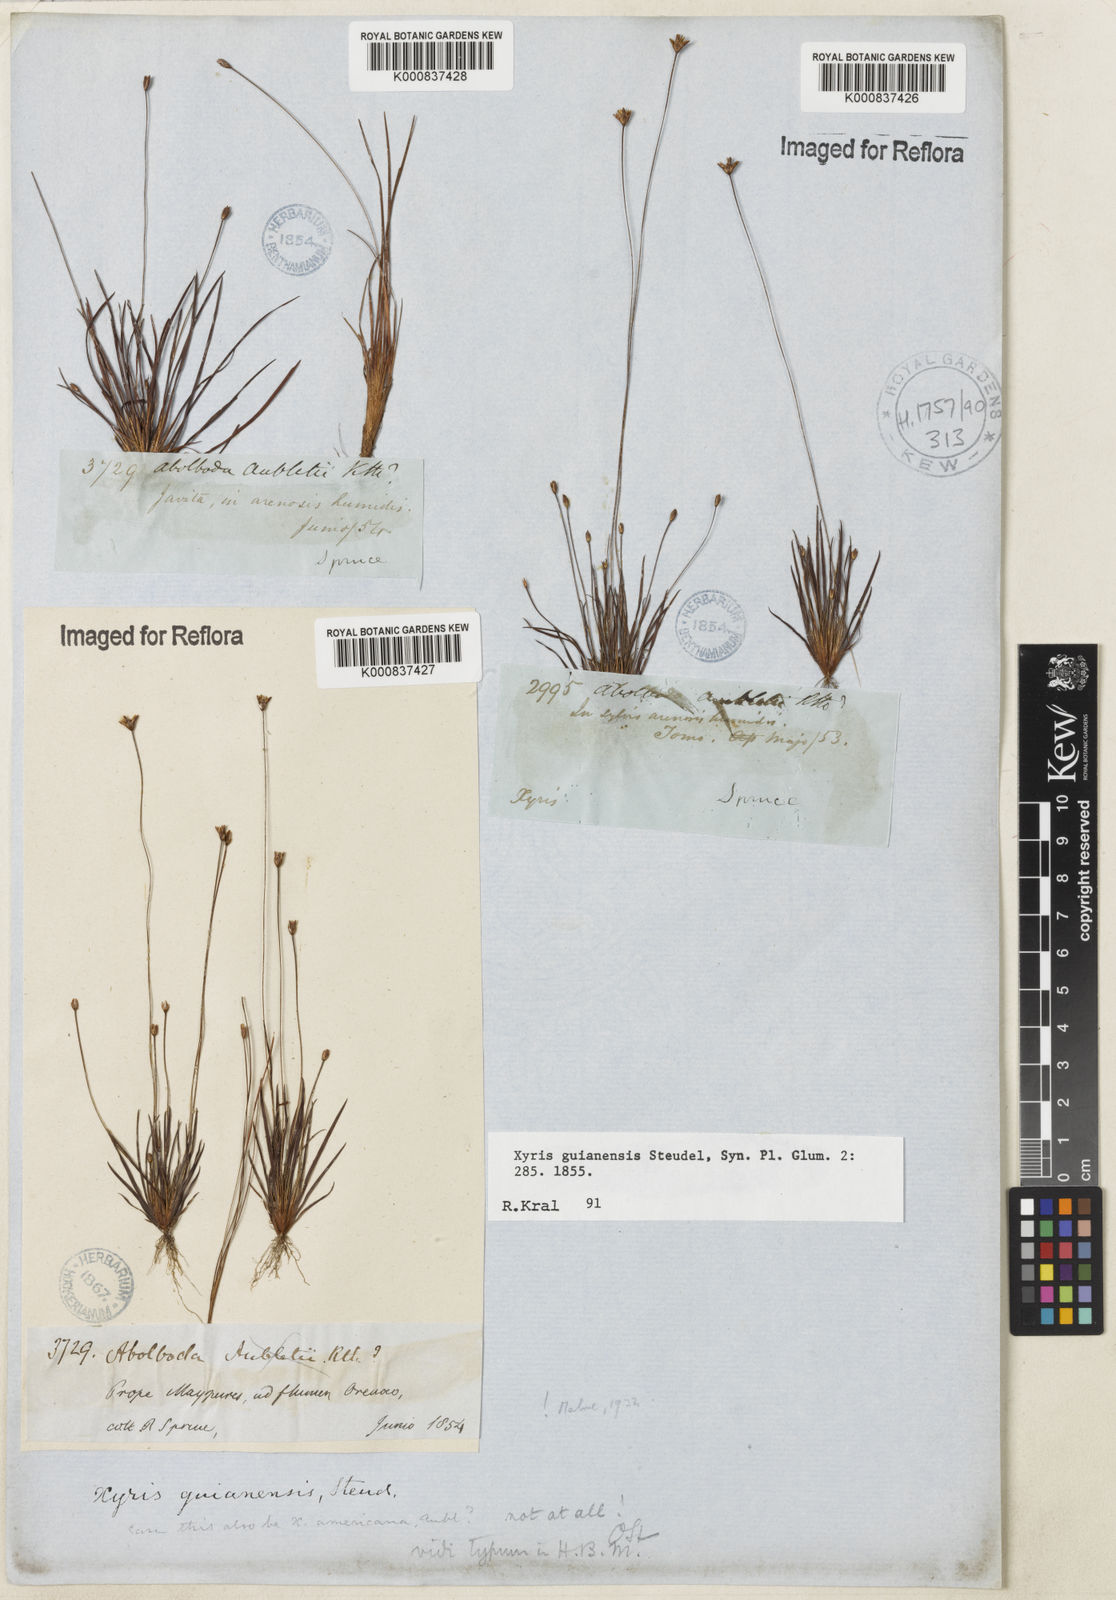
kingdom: Plantae
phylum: Tracheophyta
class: Liliopsida
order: Poales
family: Xyridaceae
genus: Xyris
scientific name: Xyris guianensis
